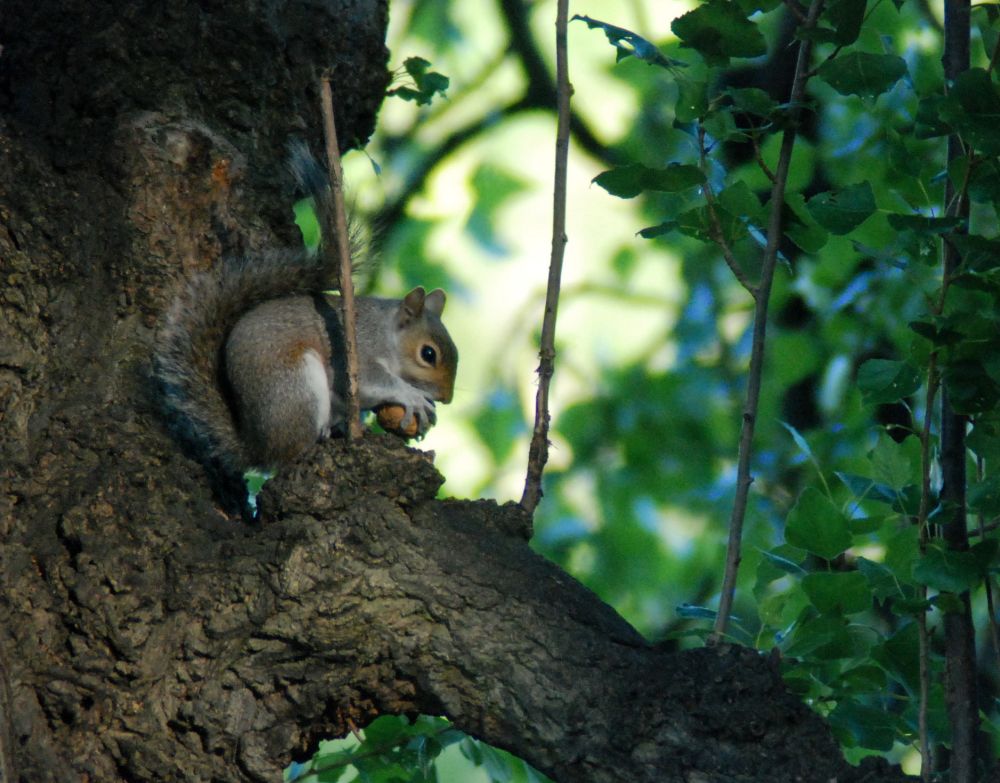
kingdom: Animalia
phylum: Chordata
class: Mammalia
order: Rodentia
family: Sciuridae
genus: Sciurus
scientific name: Sciurus carolinensis
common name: Eastern gray squirrel
